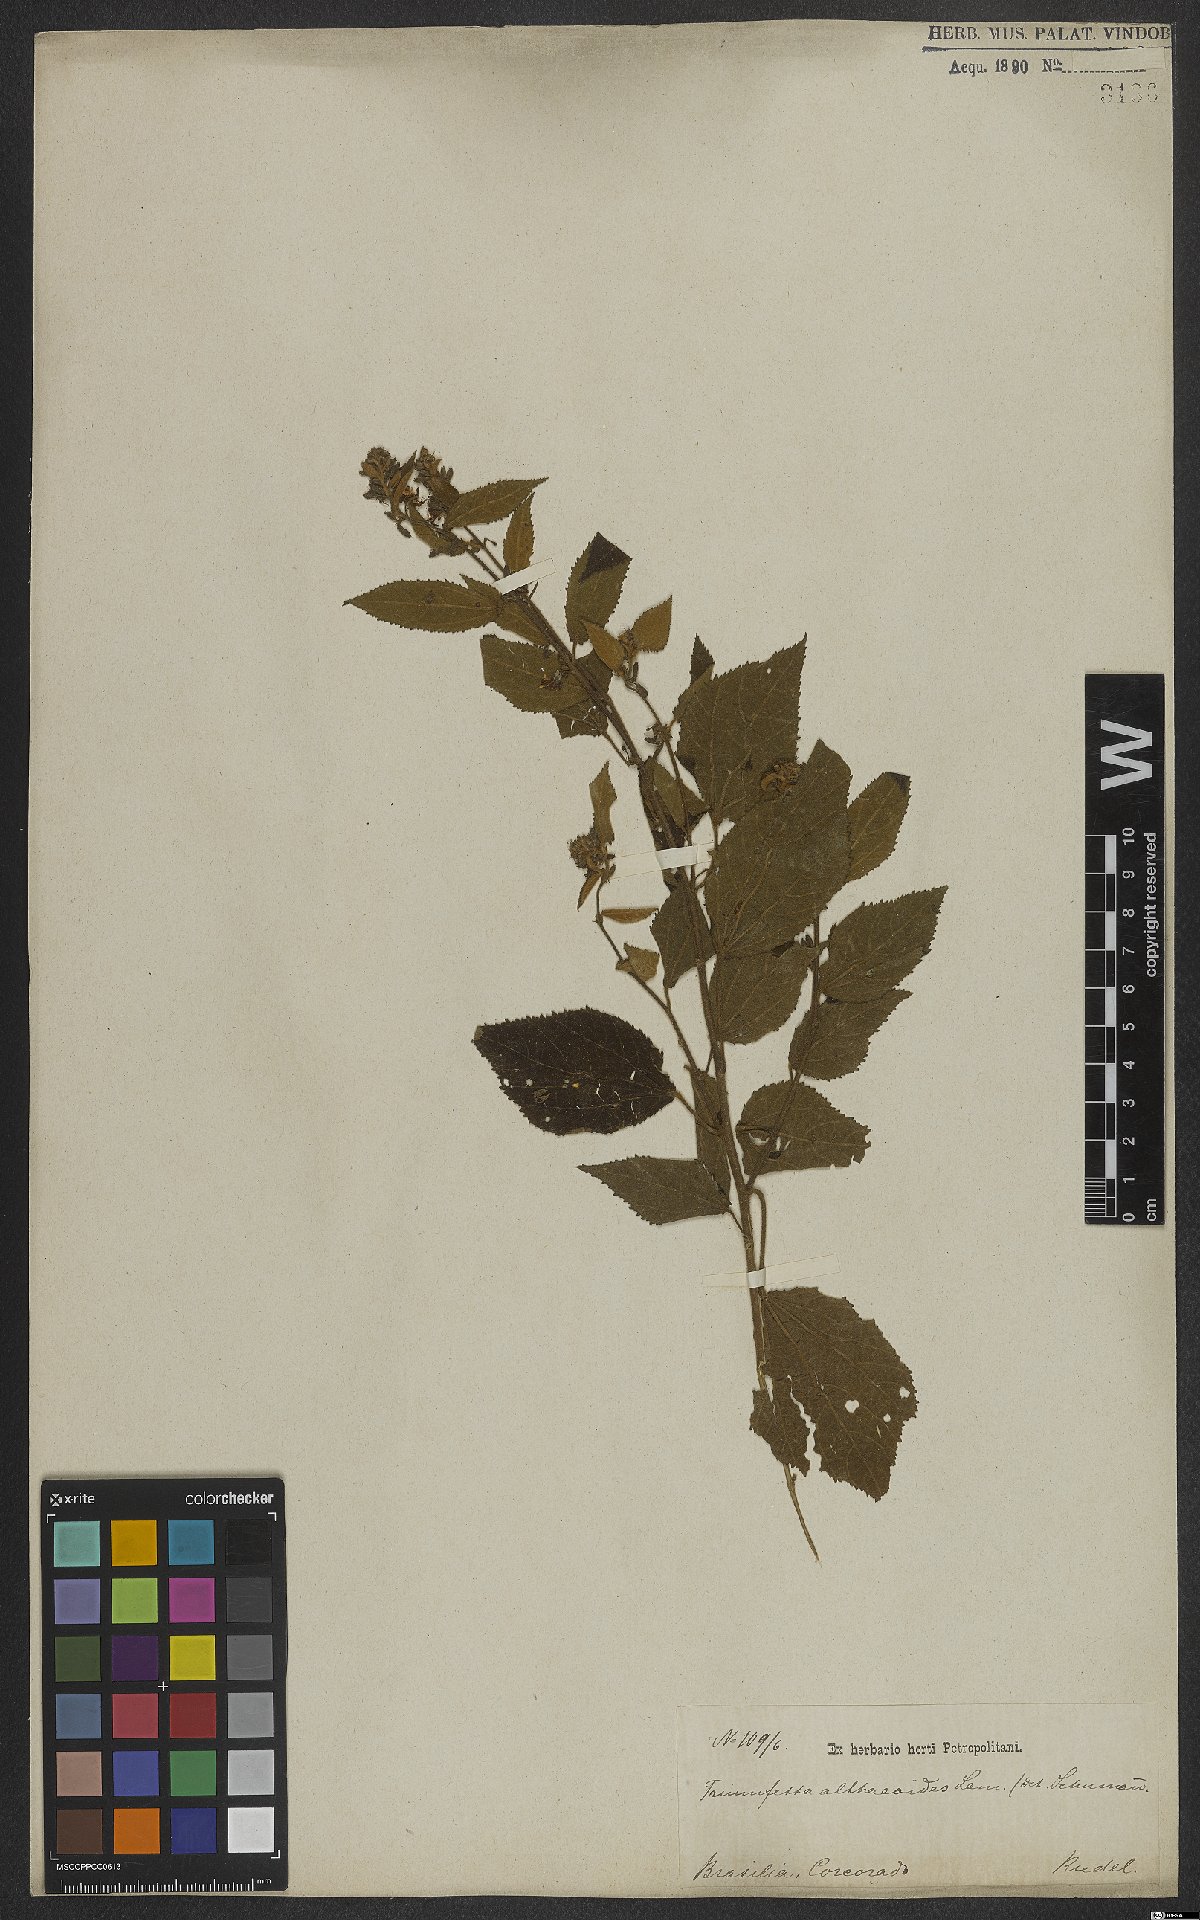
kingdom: Plantae
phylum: Tracheophyta
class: Magnoliopsida
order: Malvales
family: Malvaceae
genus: Triumfetta
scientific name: Triumfetta althaeoides
